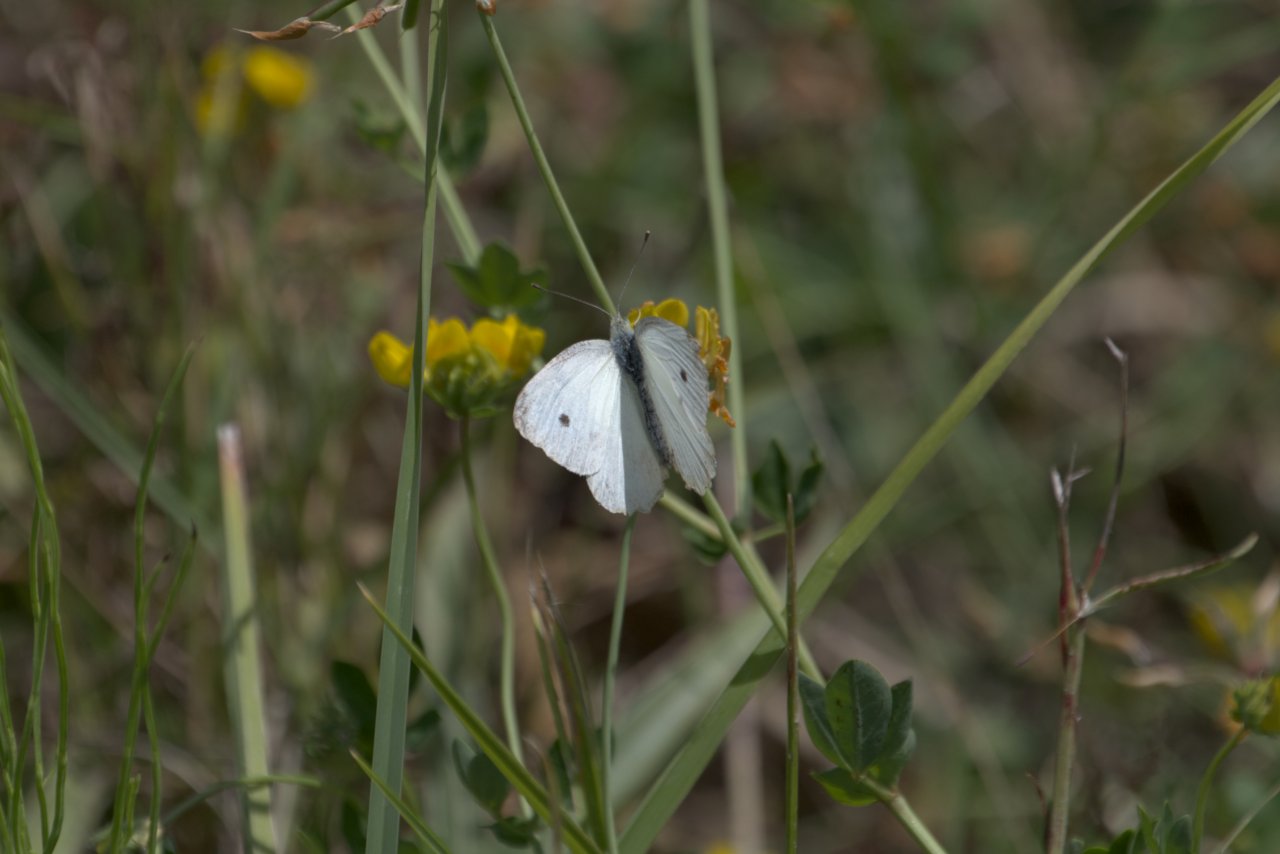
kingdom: Animalia
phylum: Arthropoda
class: Insecta
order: Lepidoptera
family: Pieridae
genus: Pieris
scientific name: Pieris rapae
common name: Cabbage White
